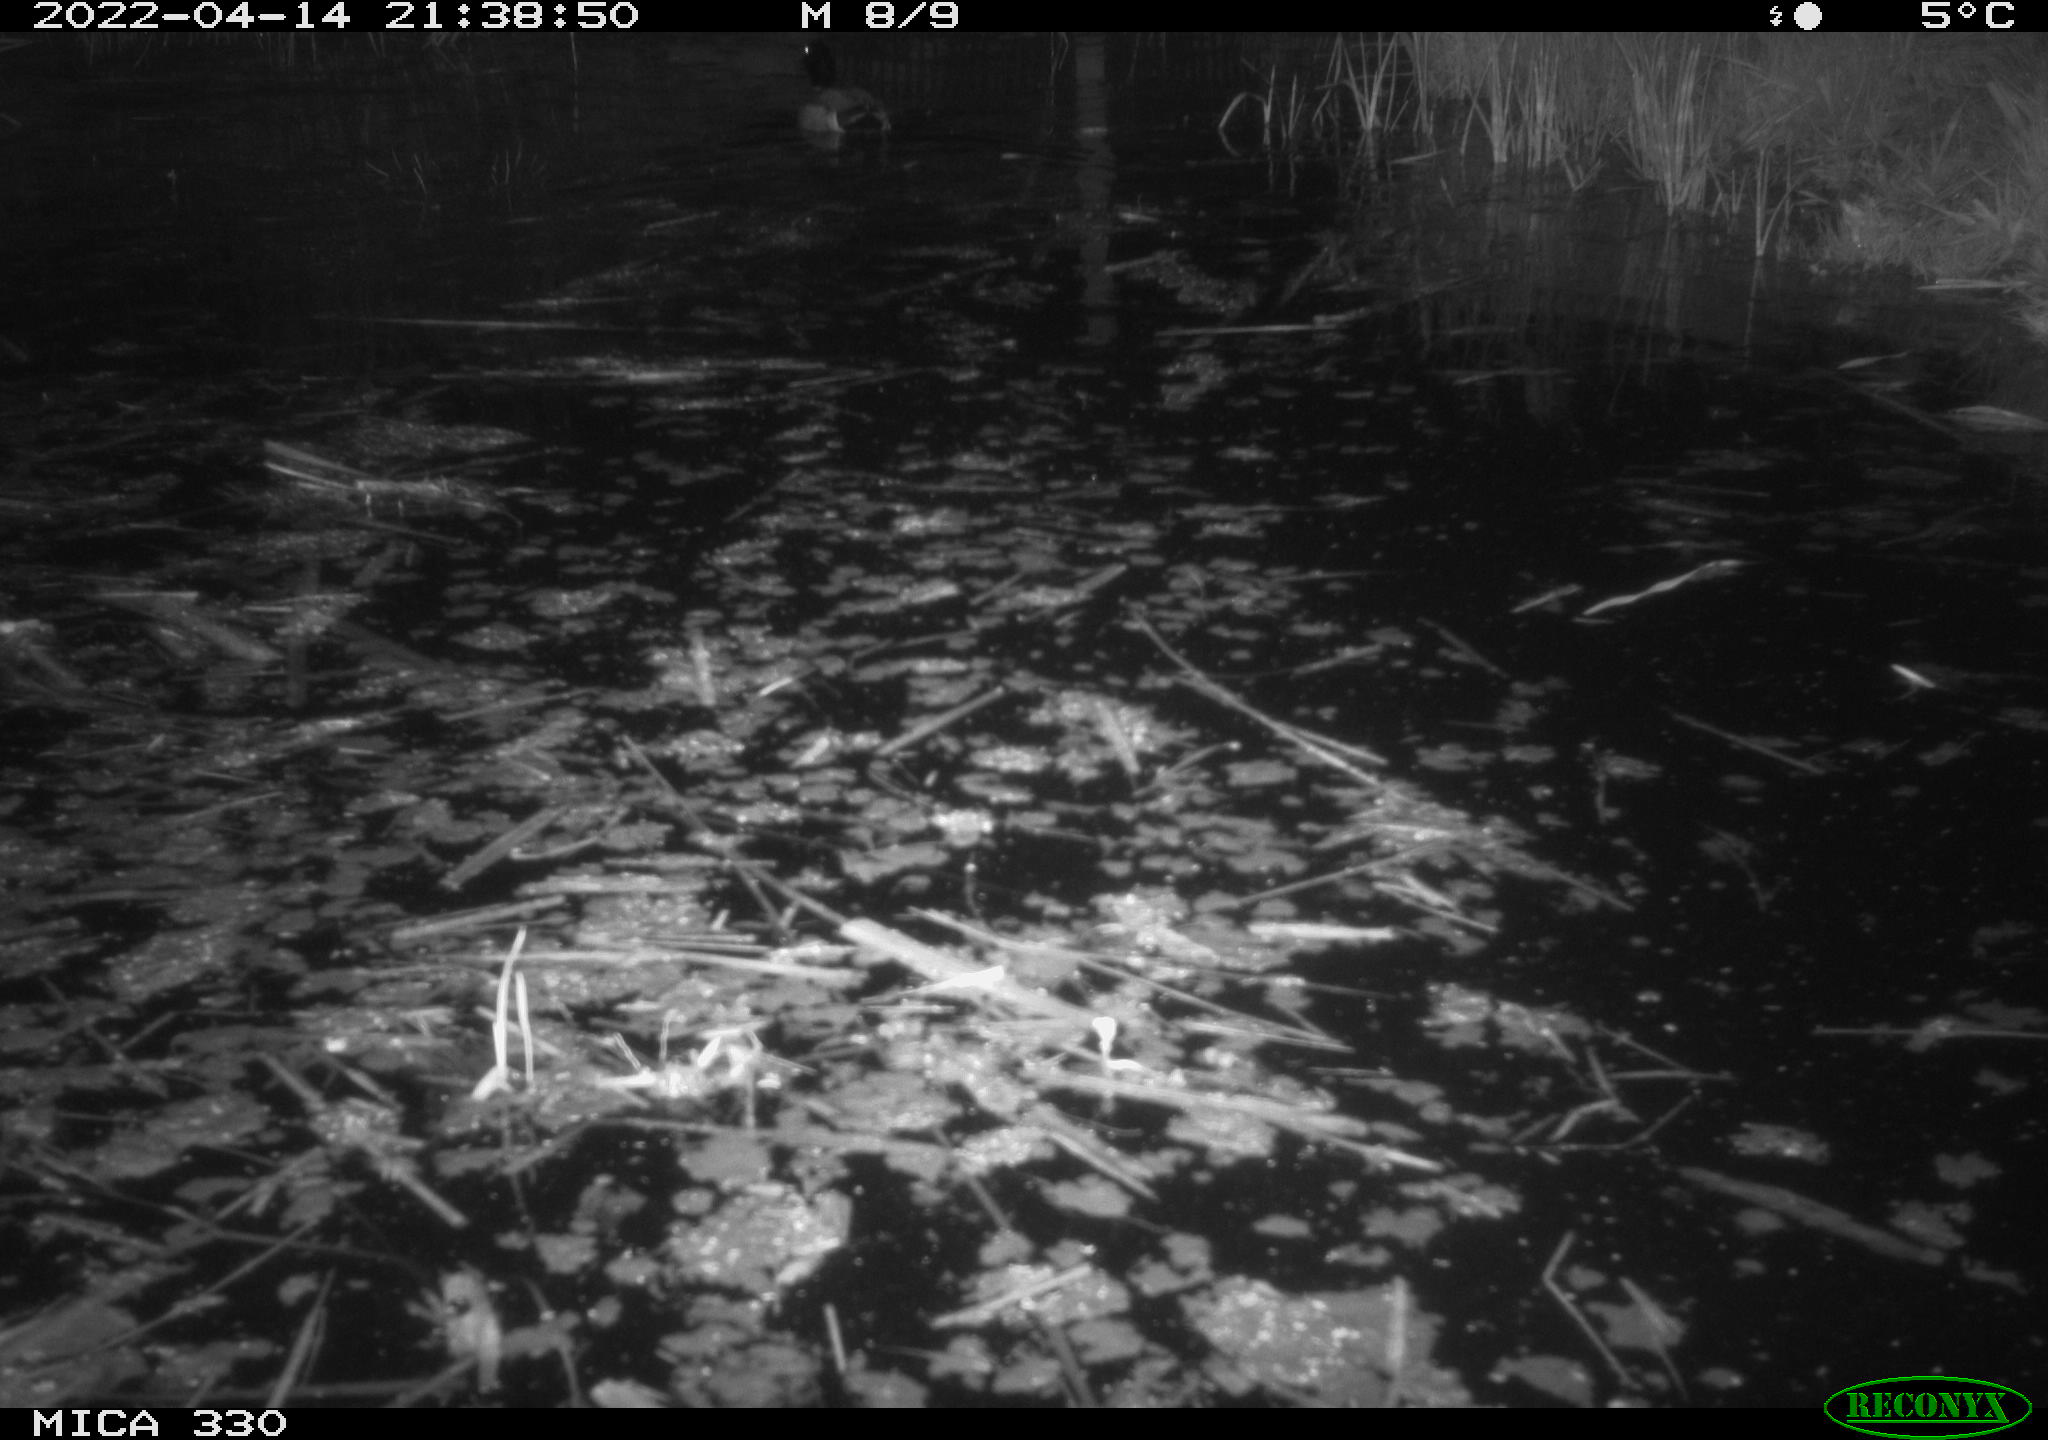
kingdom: Animalia
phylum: Chordata
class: Aves
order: Anseriformes
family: Anatidae
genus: Anas
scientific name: Anas platyrhynchos
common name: Mallard
